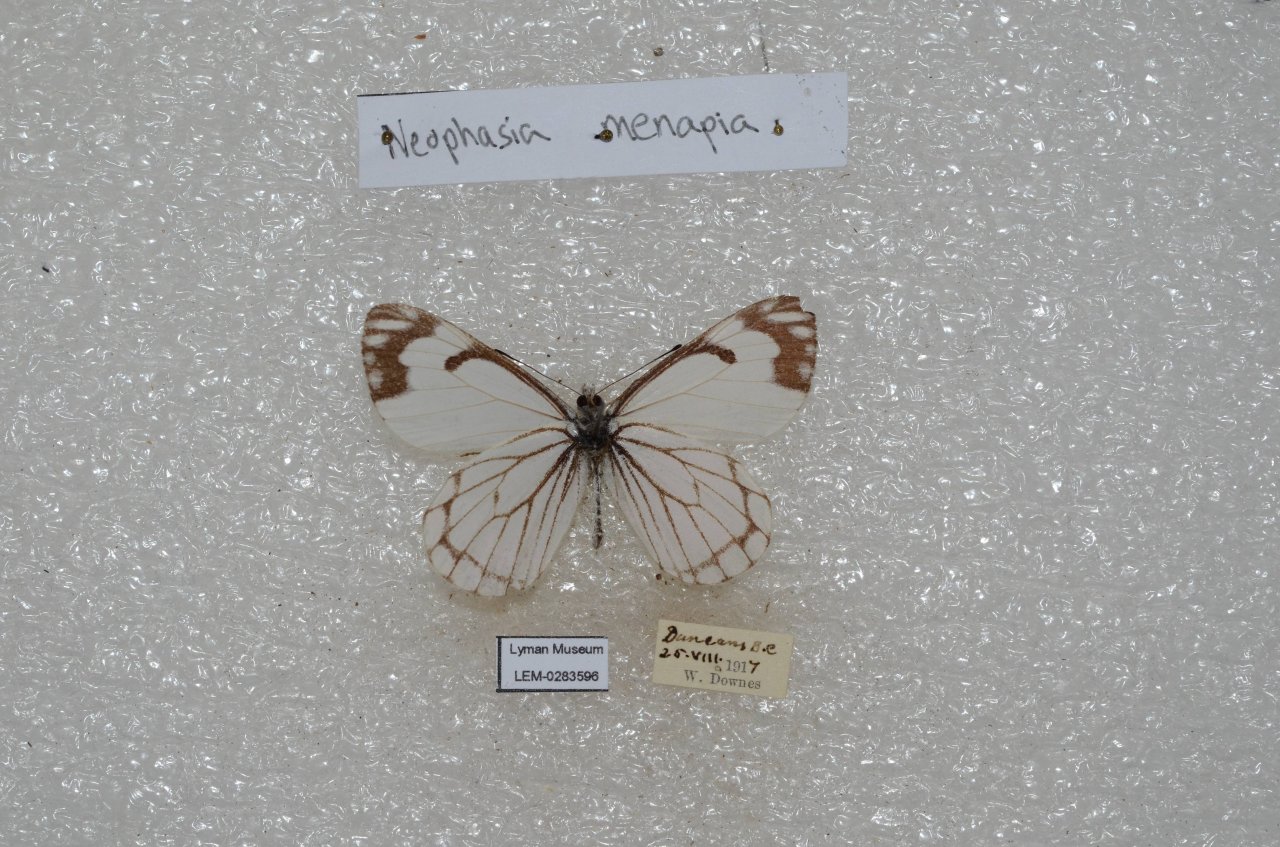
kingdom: Animalia
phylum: Arthropoda
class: Insecta
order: Lepidoptera
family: Pieridae
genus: Neophasia
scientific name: Neophasia menapia
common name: Pine White
